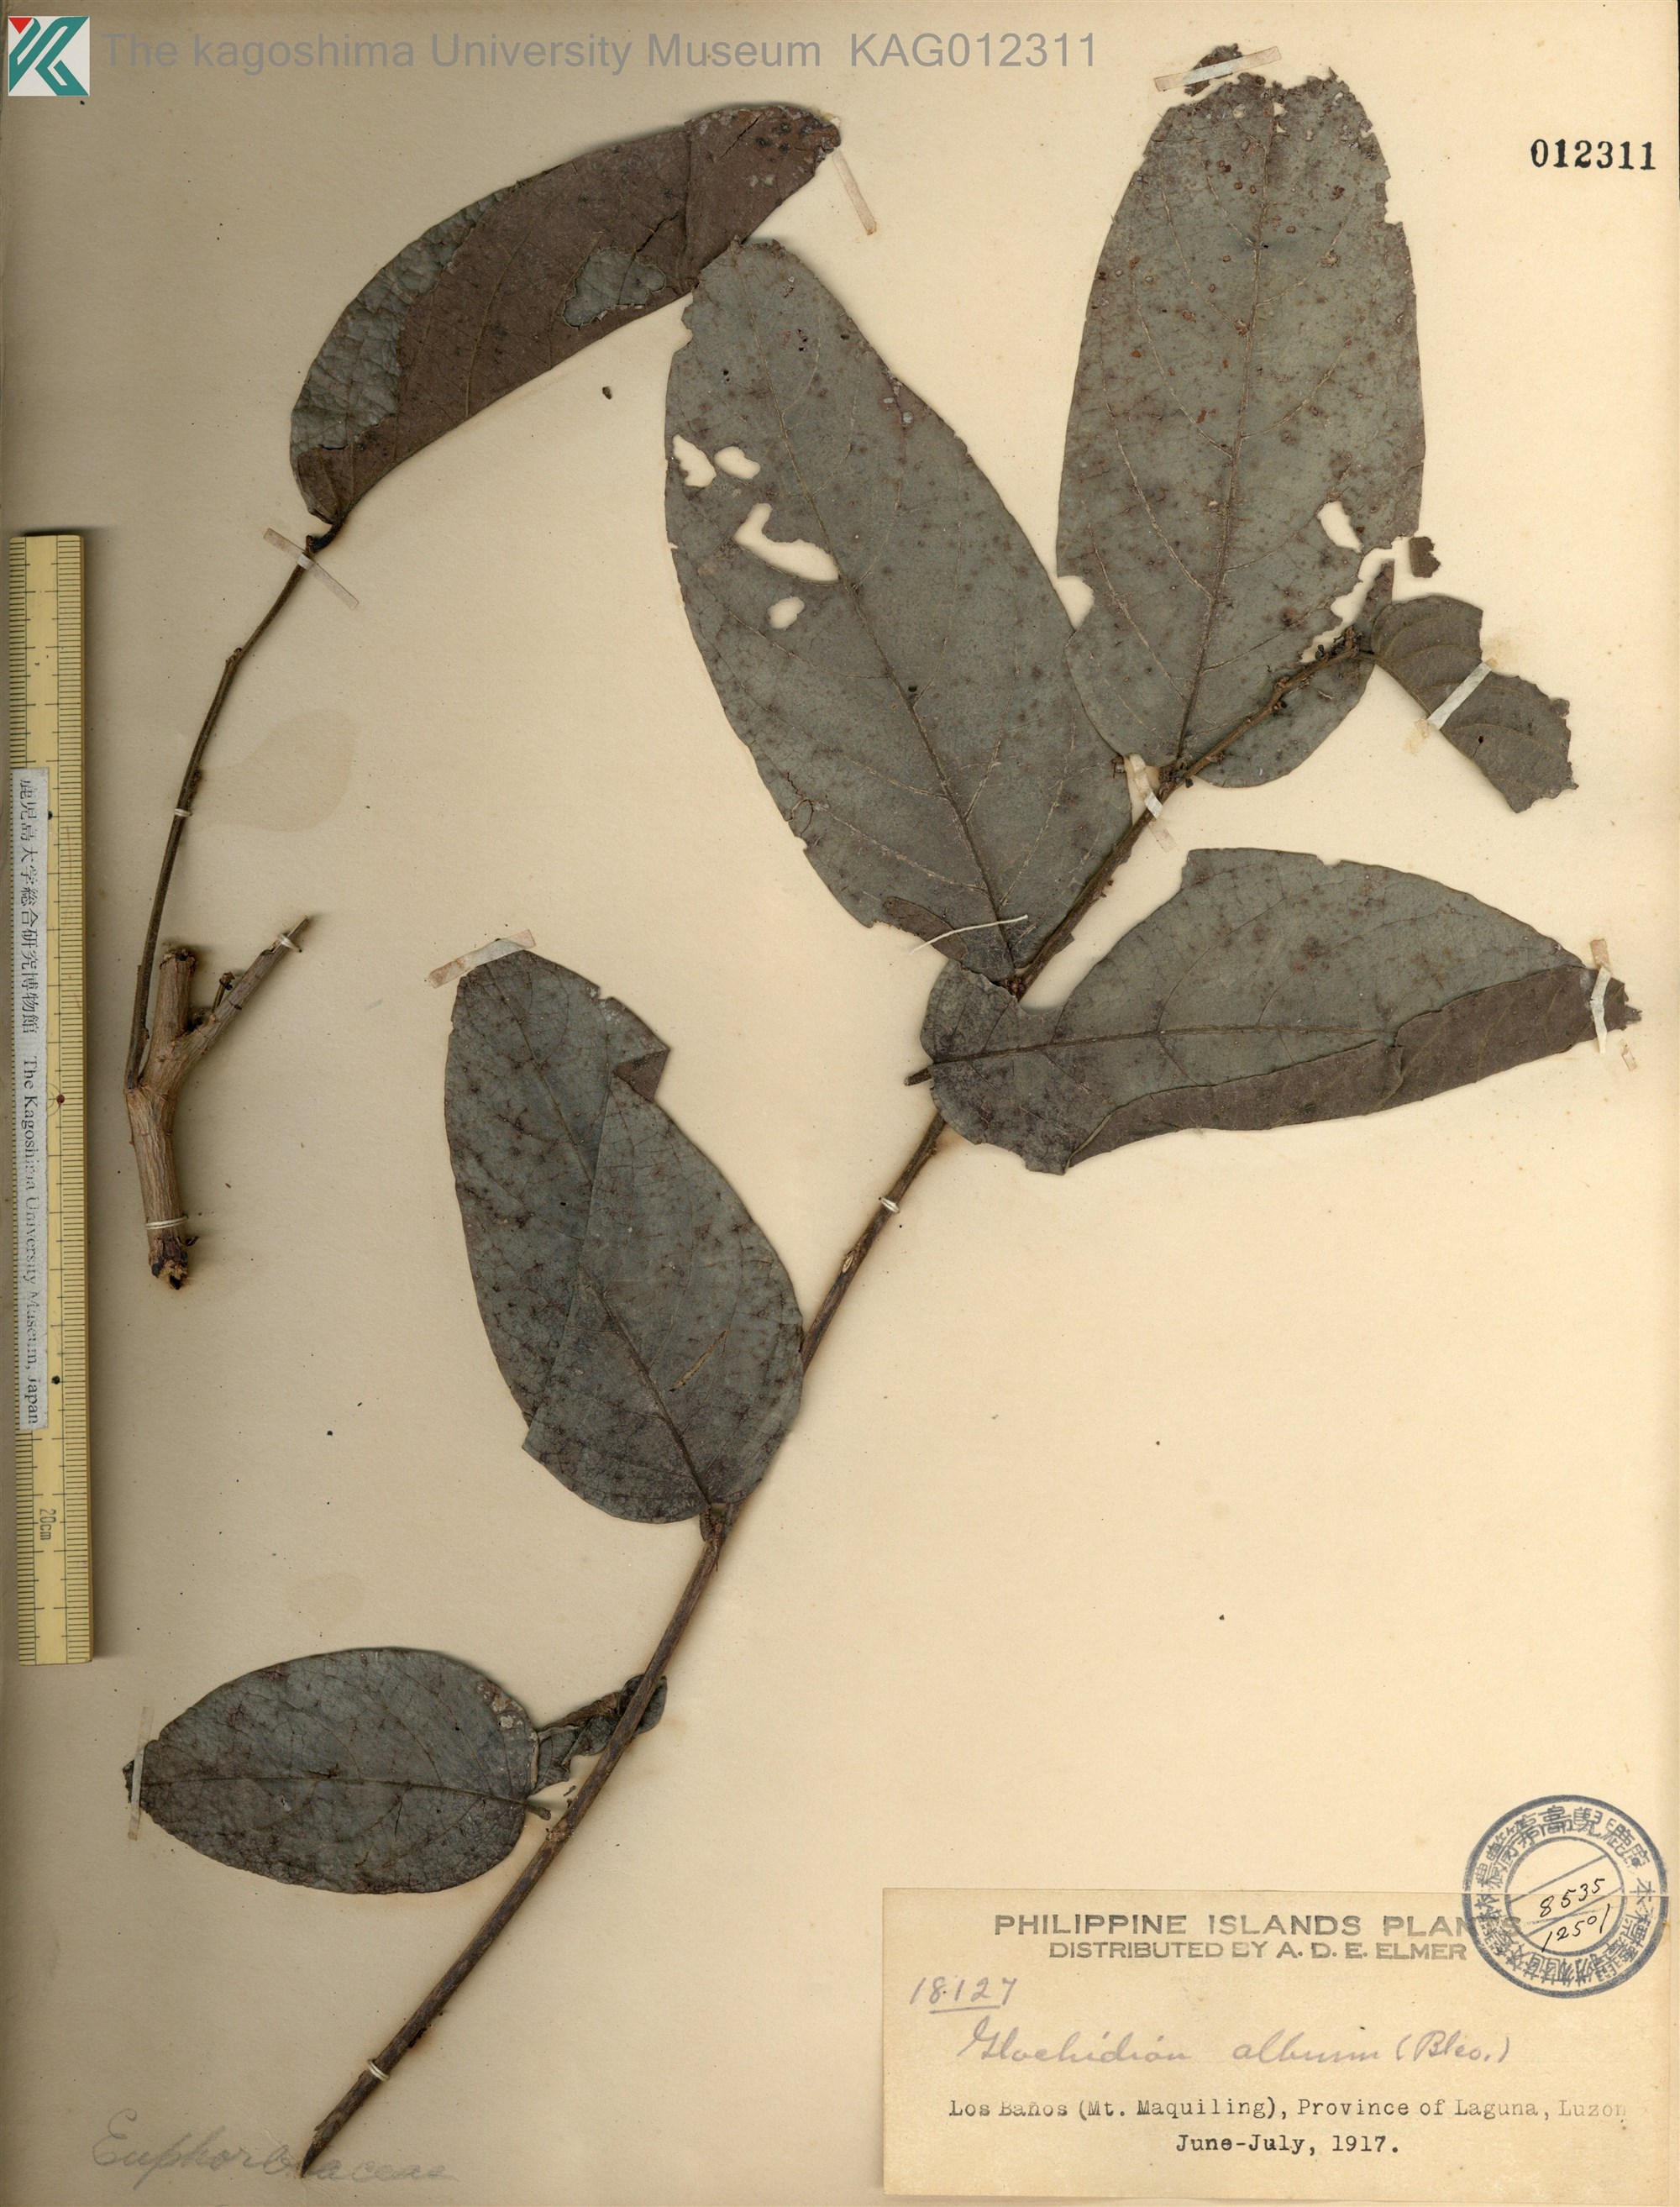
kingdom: Plantae
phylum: Tracheophyta
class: Magnoliopsida
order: Malpighiales
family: Phyllanthaceae
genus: Glochidion
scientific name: Glochidion album
